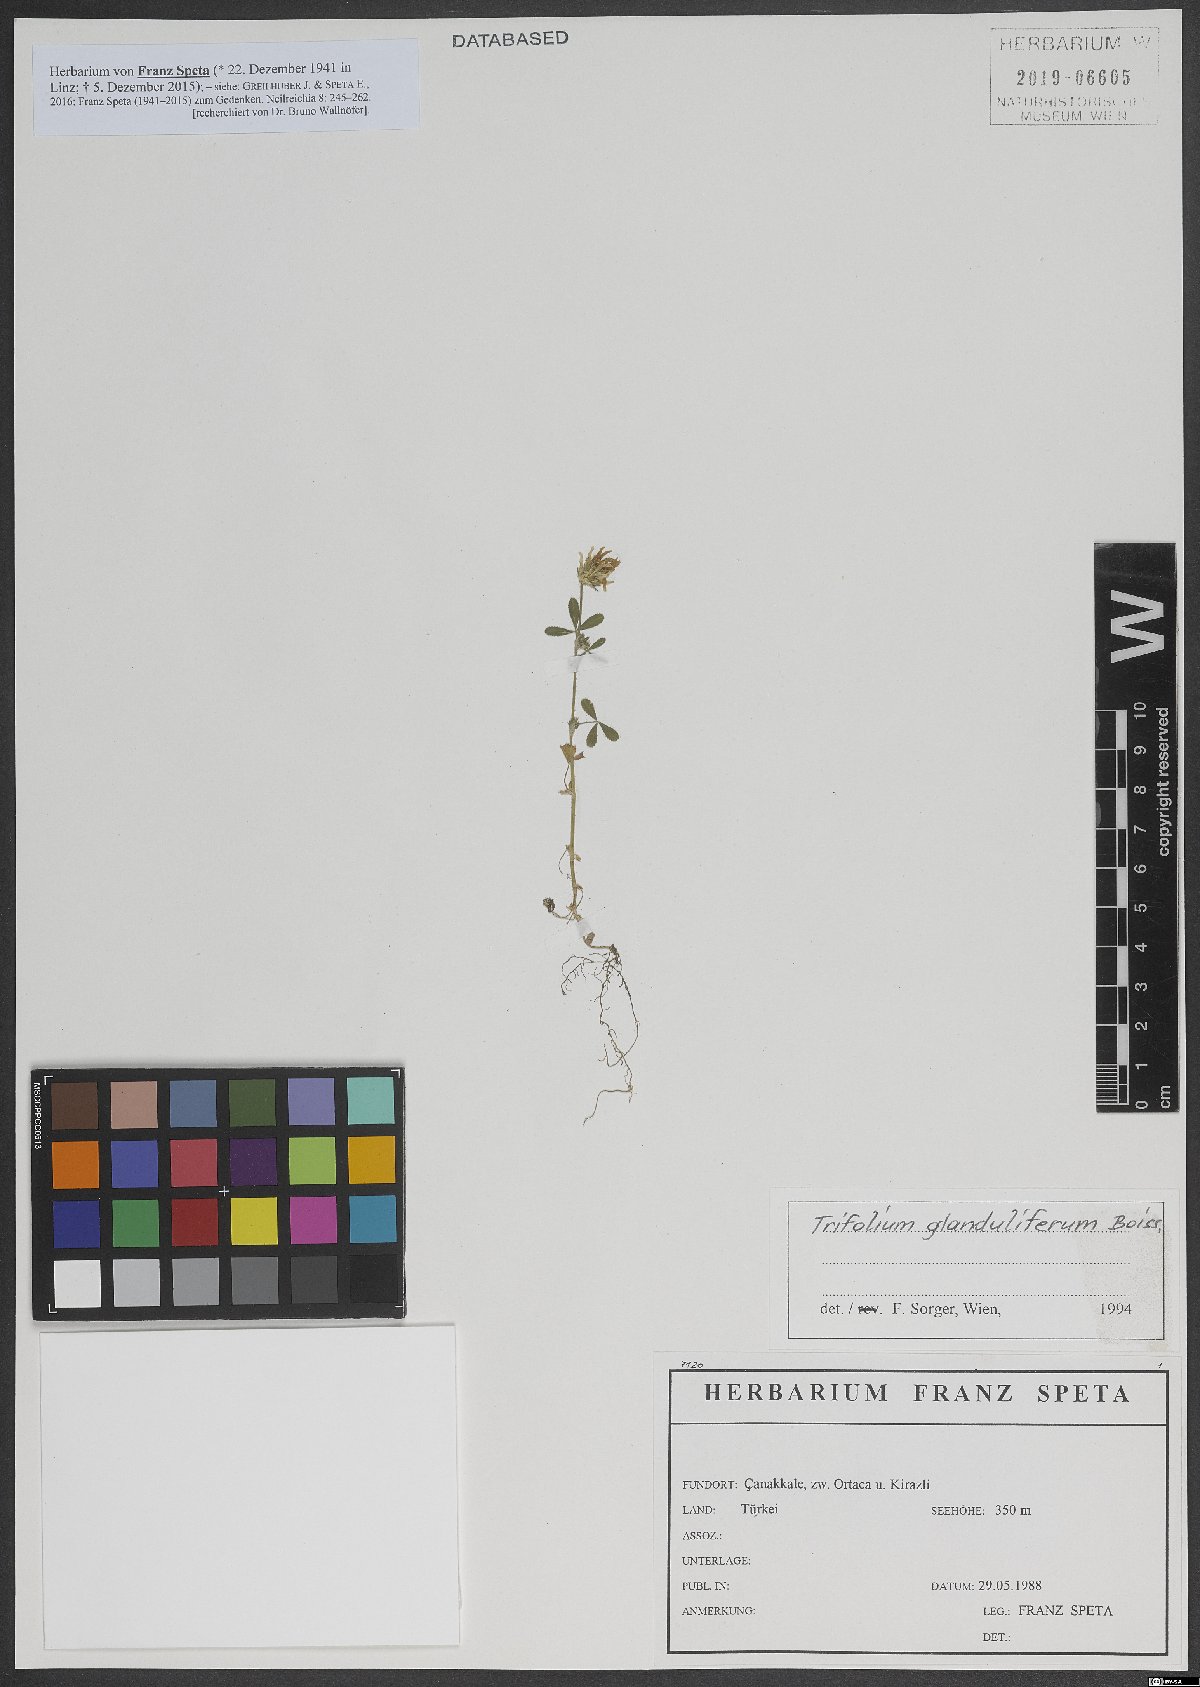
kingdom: Plantae
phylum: Tracheophyta
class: Magnoliopsida
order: Fabales
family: Fabaceae
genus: Trifolium
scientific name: Trifolium glanduliferum
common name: Glandular clover
